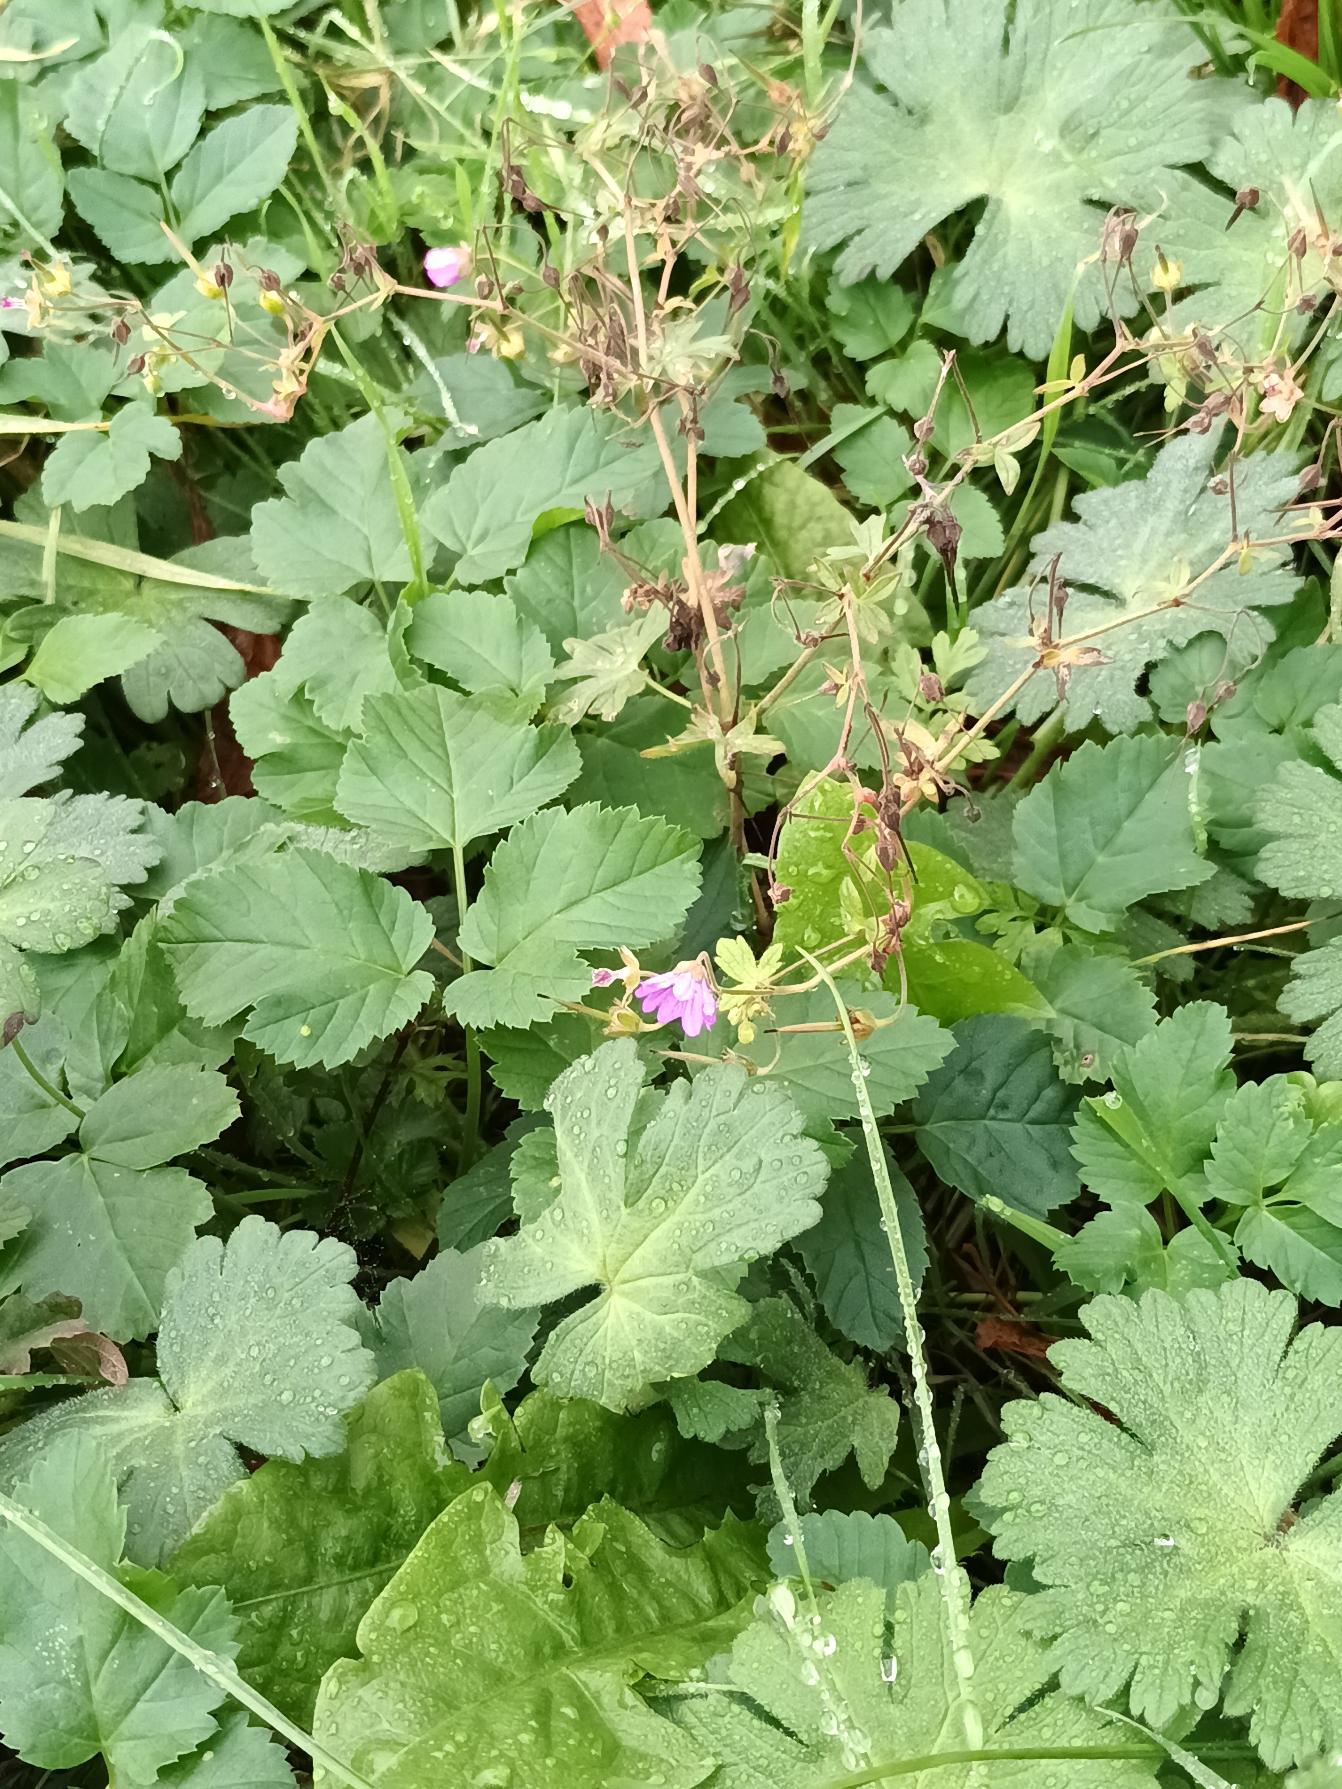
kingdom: Plantae
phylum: Tracheophyta
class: Magnoliopsida
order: Geraniales
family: Geraniaceae
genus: Geranium
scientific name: Geranium pyrenaicum
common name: Pyrenæisk storkenæb
